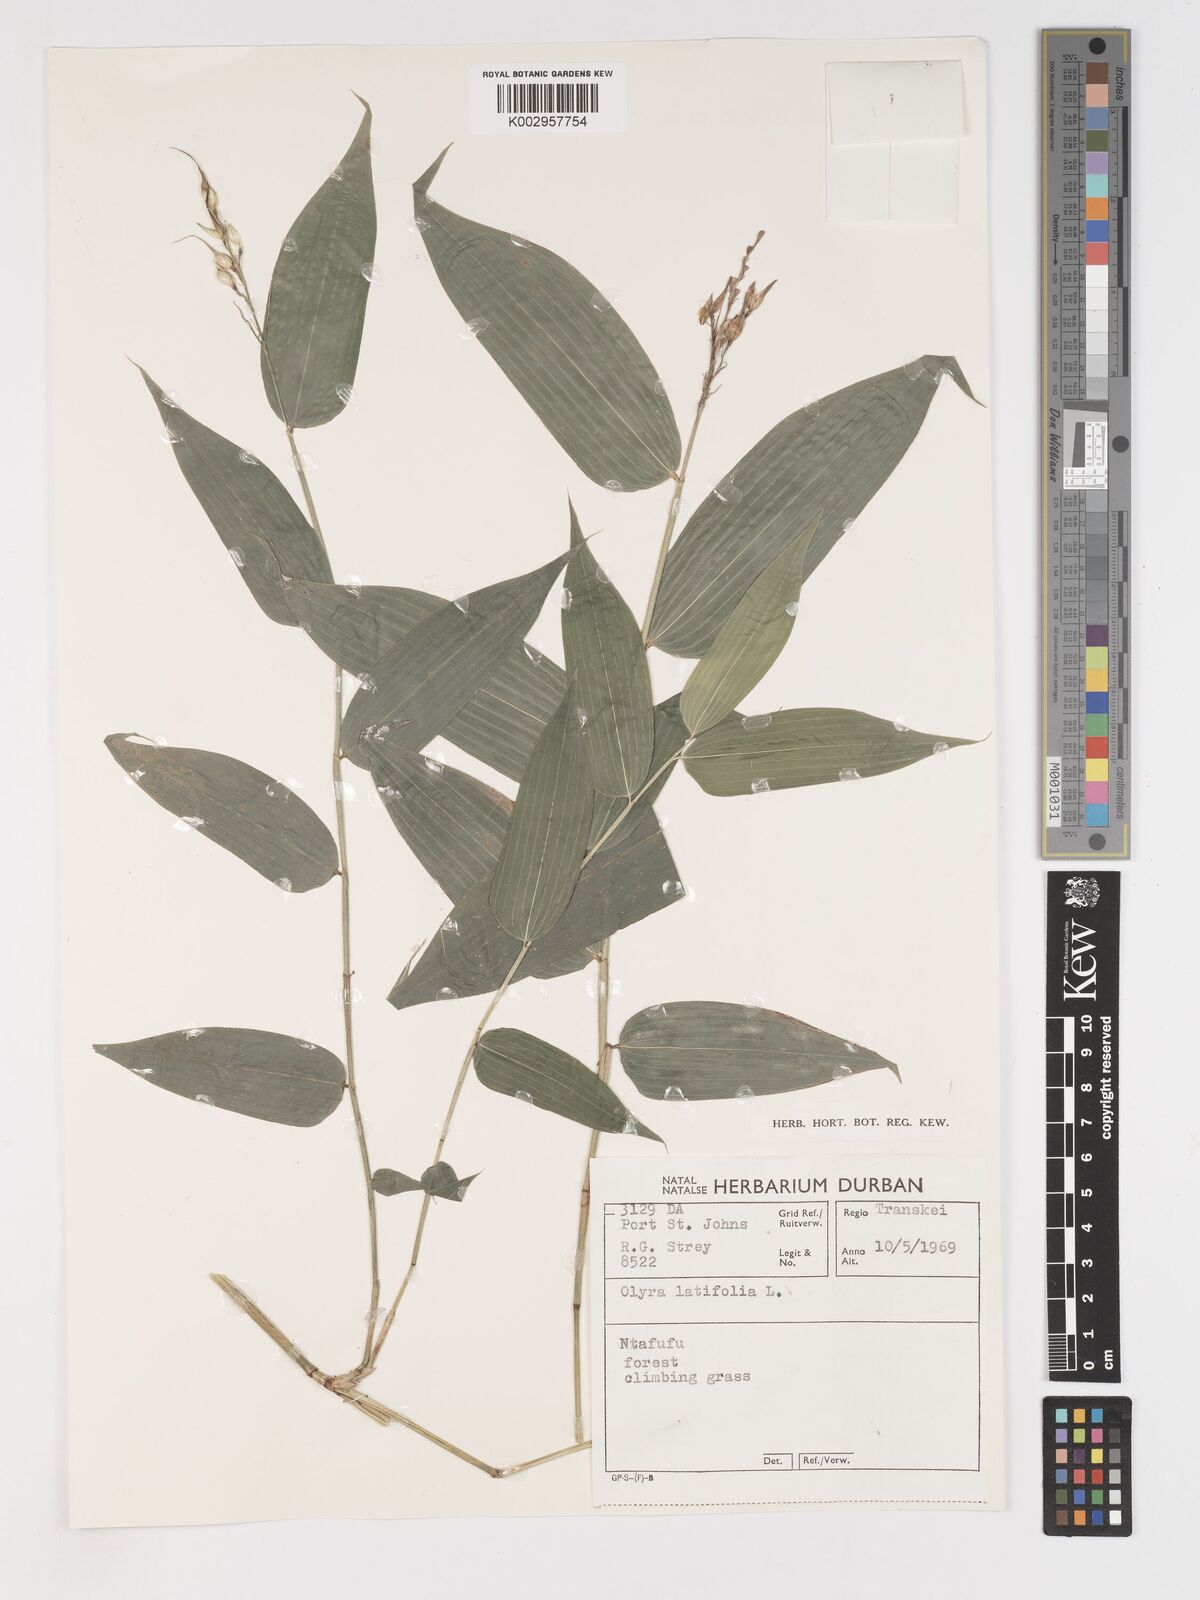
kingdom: Plantae
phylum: Tracheophyta
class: Liliopsida
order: Poales
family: Poaceae
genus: Olyra
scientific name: Olyra latifolia
